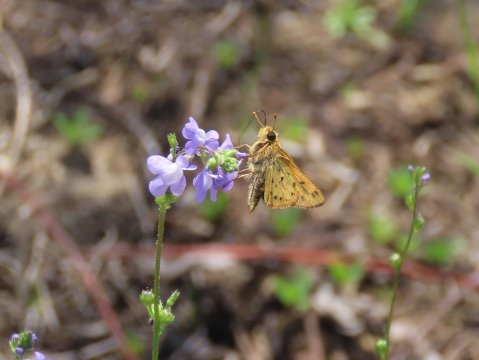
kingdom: Animalia
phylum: Arthropoda
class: Insecta
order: Lepidoptera
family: Hesperiidae
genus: Hylephila
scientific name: Hylephila phyleus
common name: Fiery Skipper
